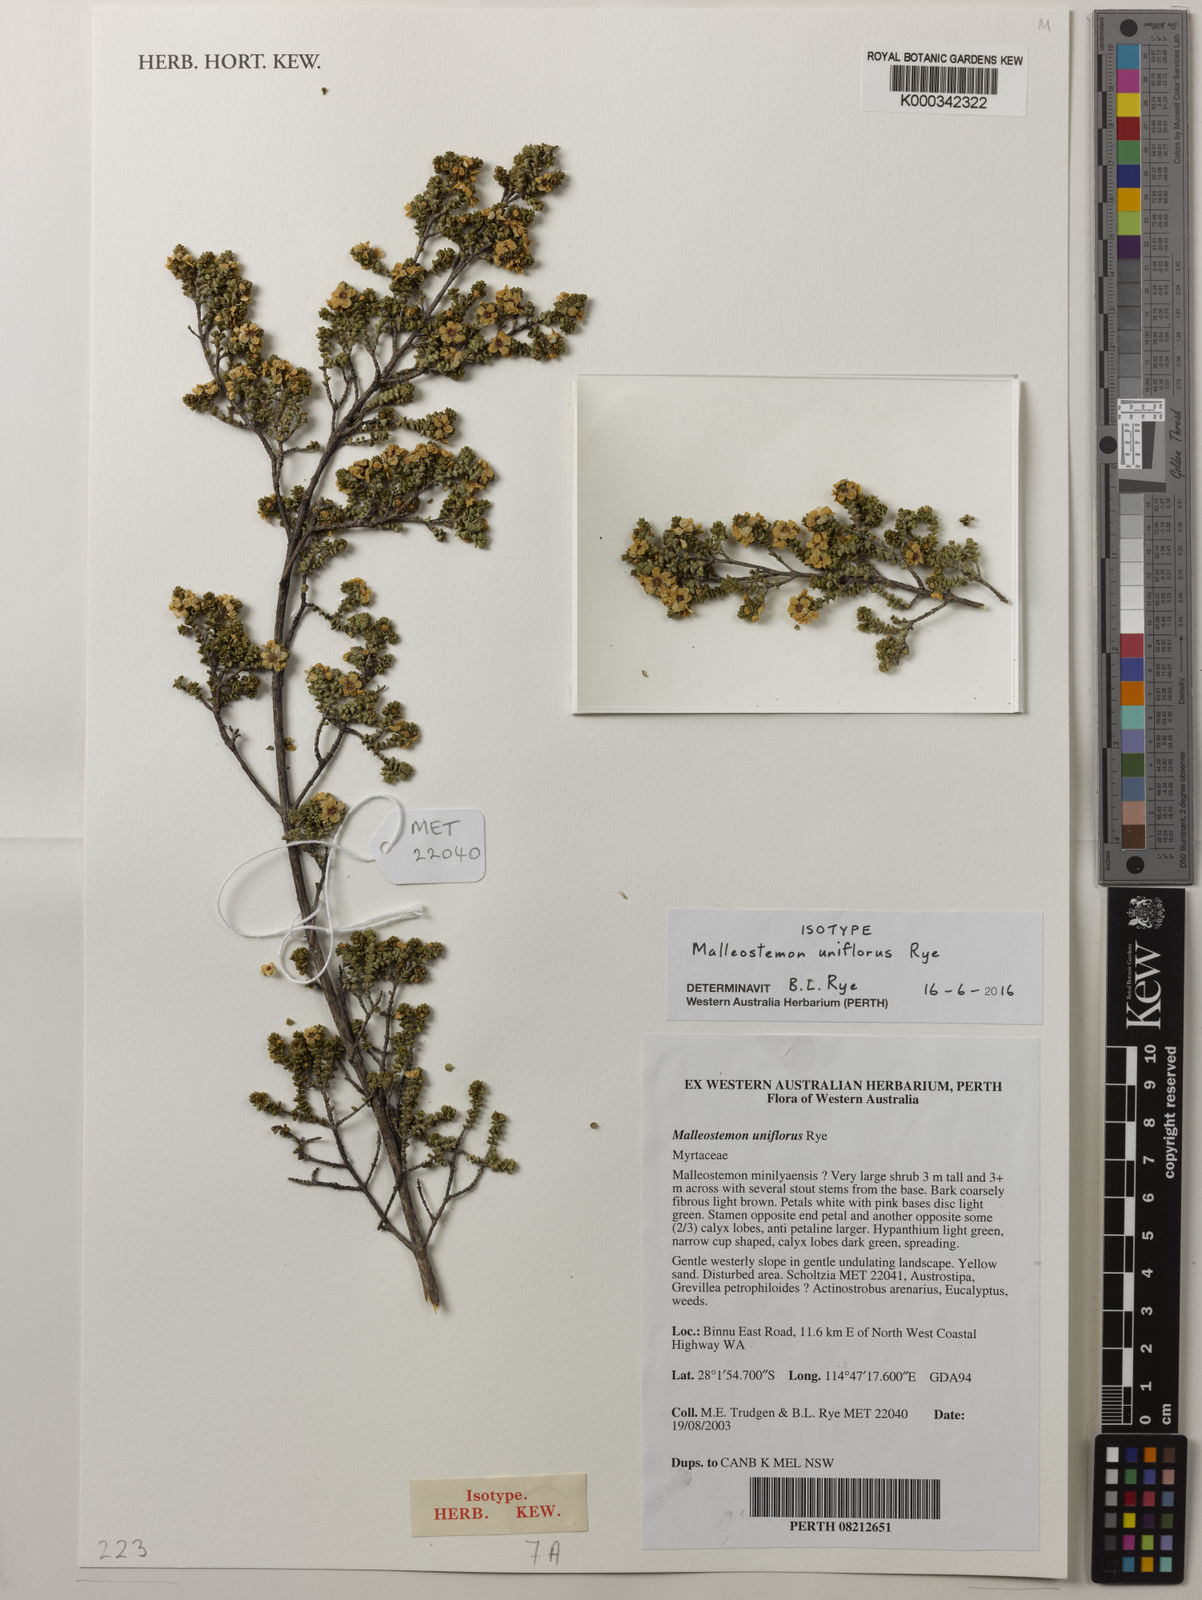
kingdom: Plantae
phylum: Tracheophyta
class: Magnoliopsida
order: Myrtales
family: Myrtaceae
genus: Malleostemon
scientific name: Malleostemon uniflorus
